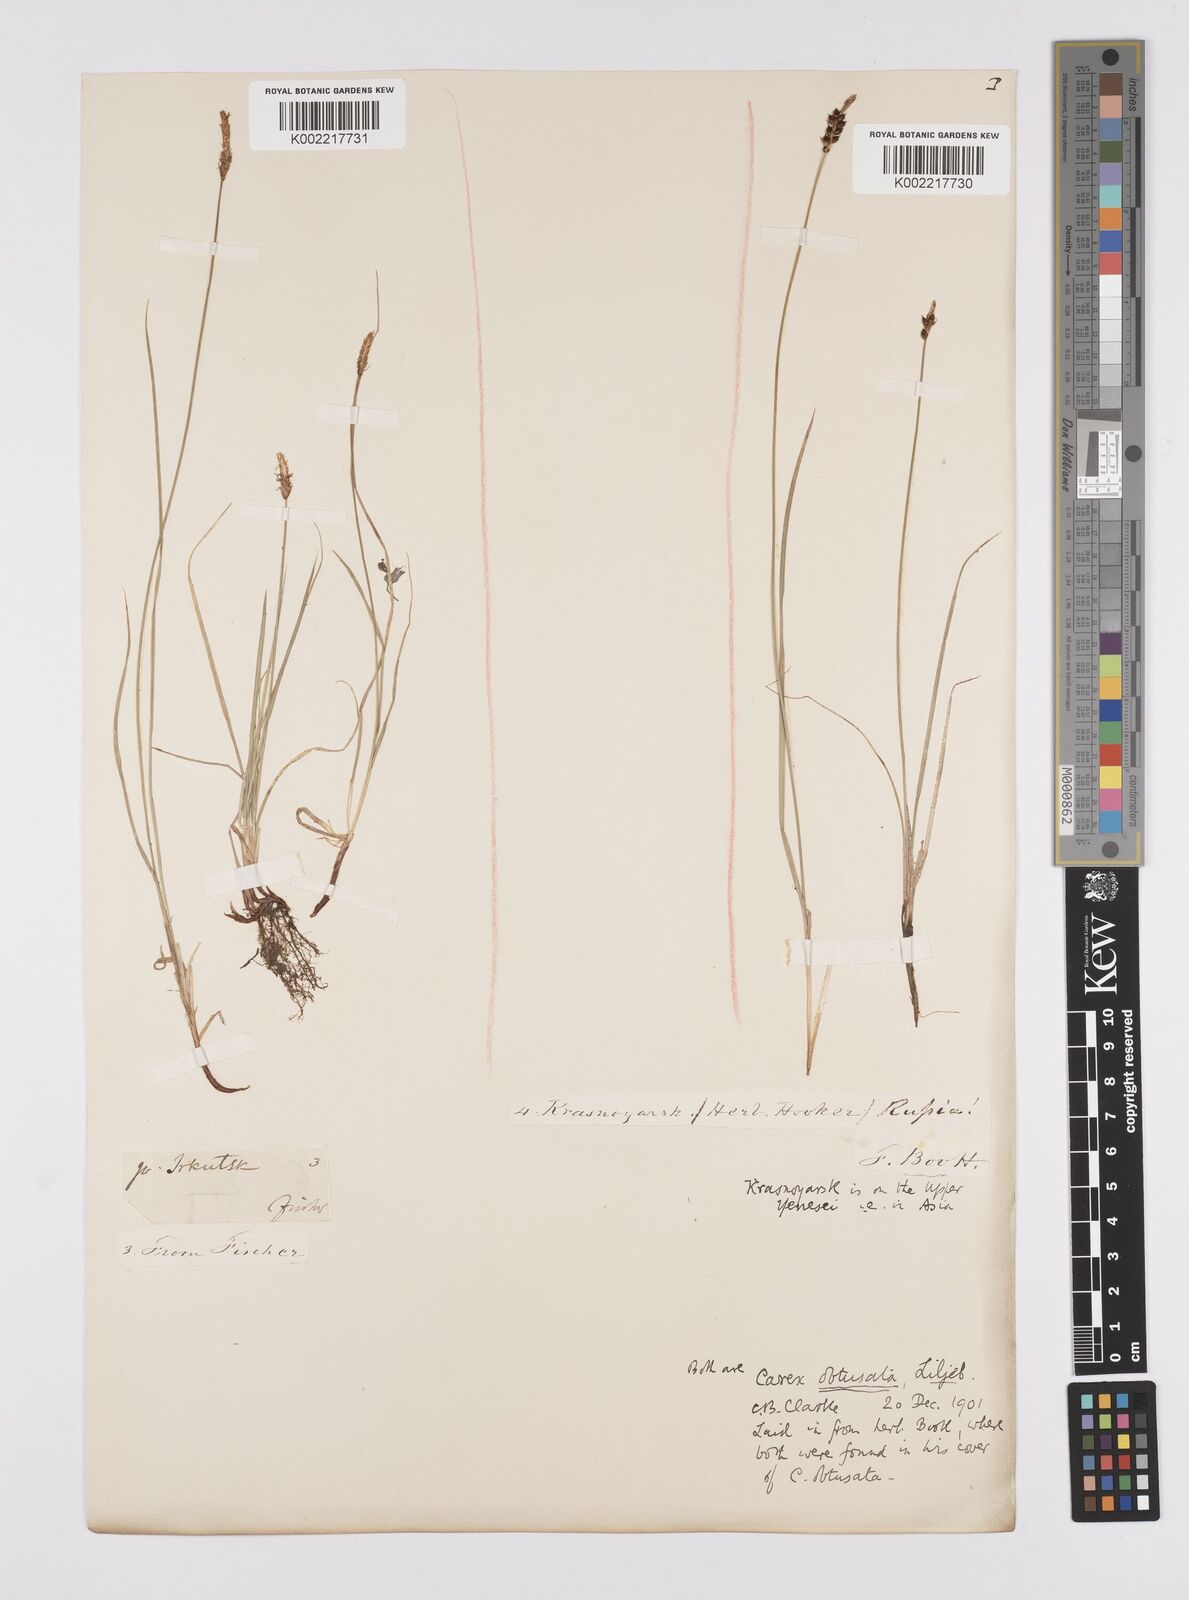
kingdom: Plantae
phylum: Tracheophyta
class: Liliopsida
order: Poales
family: Cyperaceae
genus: Carex
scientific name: Carex obtusata
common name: Blunt sedge
